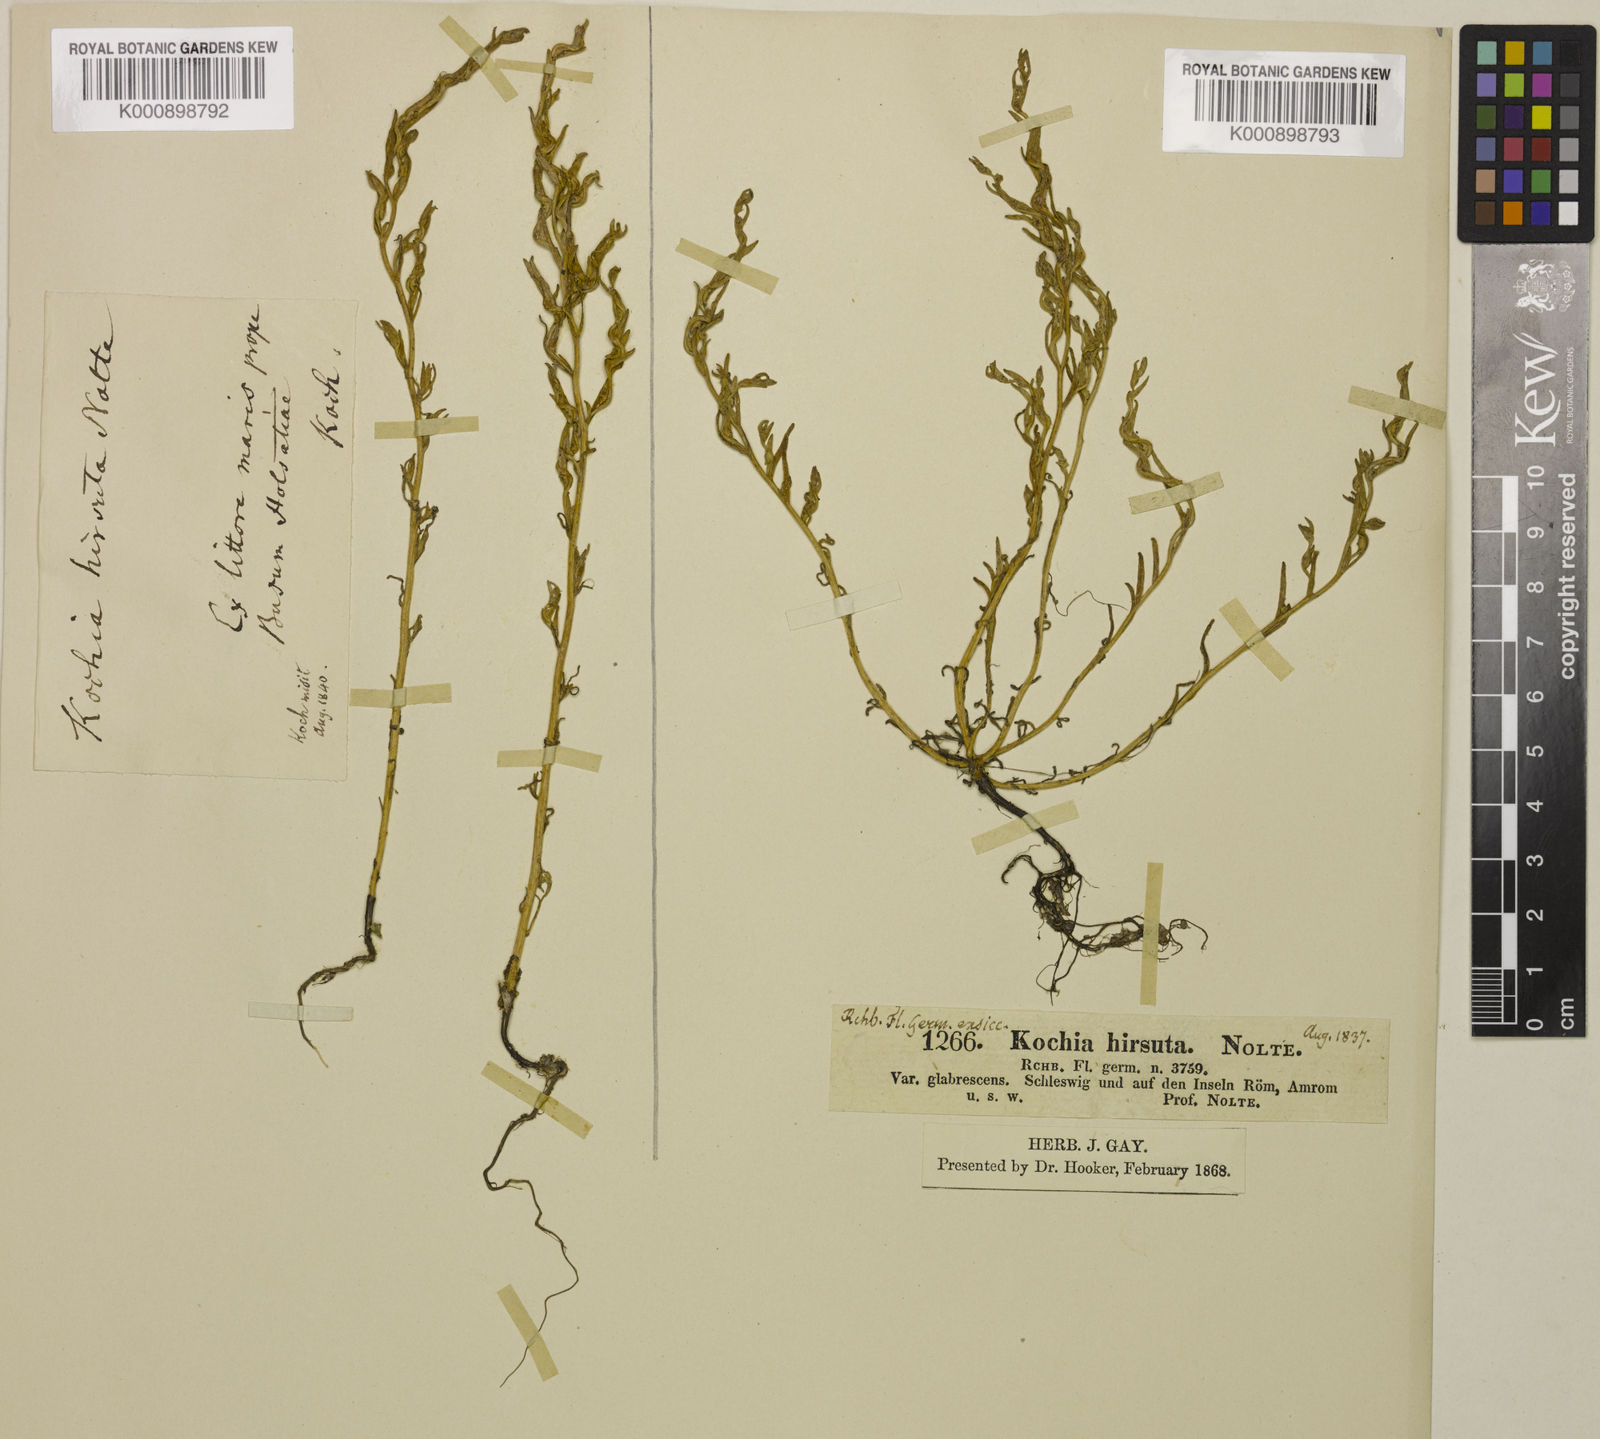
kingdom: Plantae
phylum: Tracheophyta
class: Magnoliopsida
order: Caryophyllales
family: Amaranthaceae
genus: Spirobassia
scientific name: Spirobassia hirsuta
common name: Hairy smotherweed
